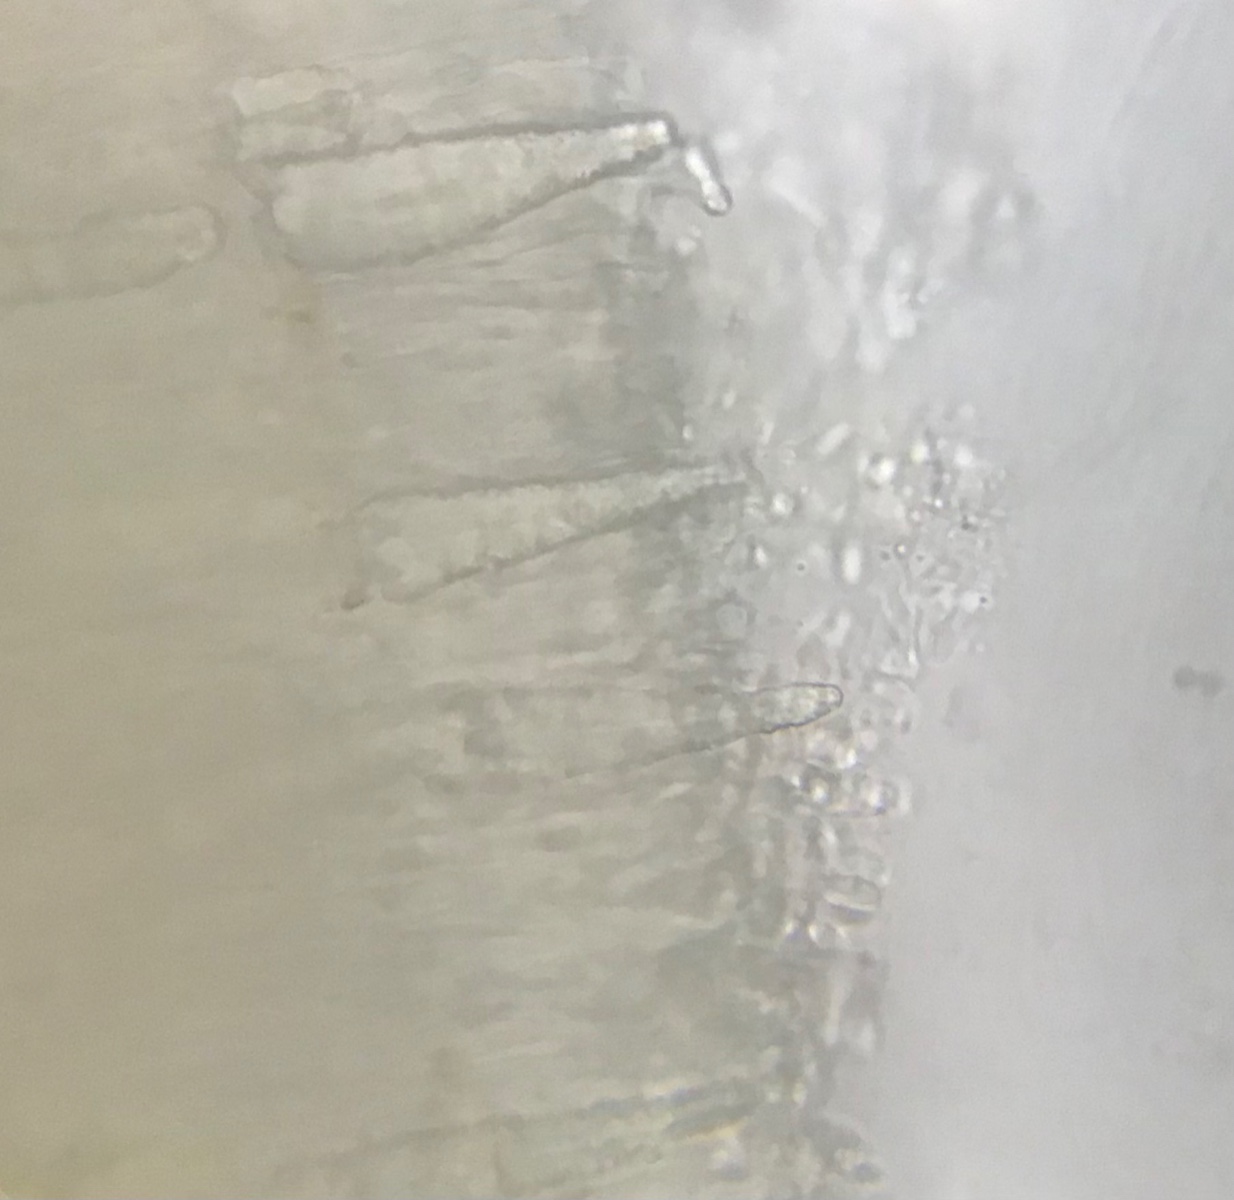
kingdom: Fungi
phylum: Basidiomycota
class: Agaricomycetes
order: Polyporales
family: Phanerochaetaceae
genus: Phlebiopsis
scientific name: Phlebiopsis gigantea
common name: kæmpebarksvamp
